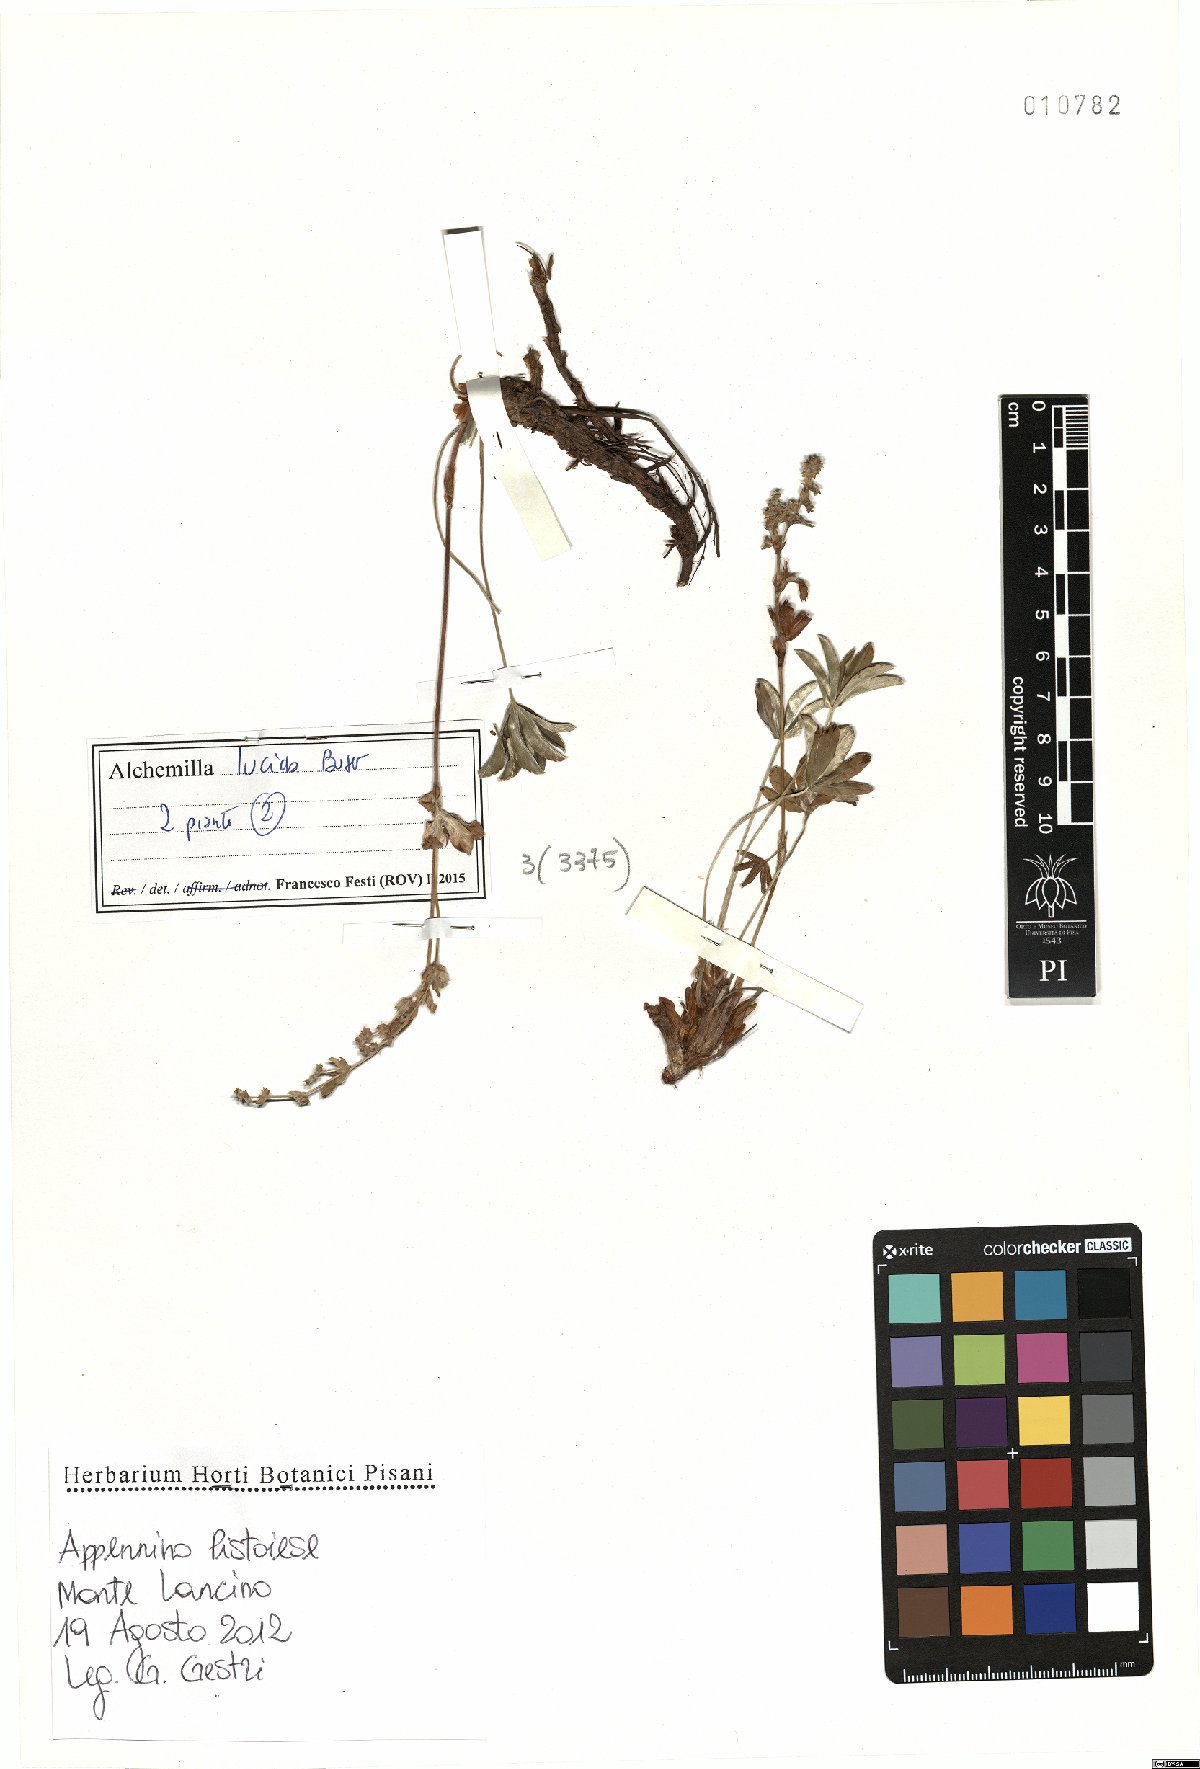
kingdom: Plantae
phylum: Tracheophyta
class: Magnoliopsida
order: Rosales
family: Rosaceae
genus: Alchemilla
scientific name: Alchemilla lucida
